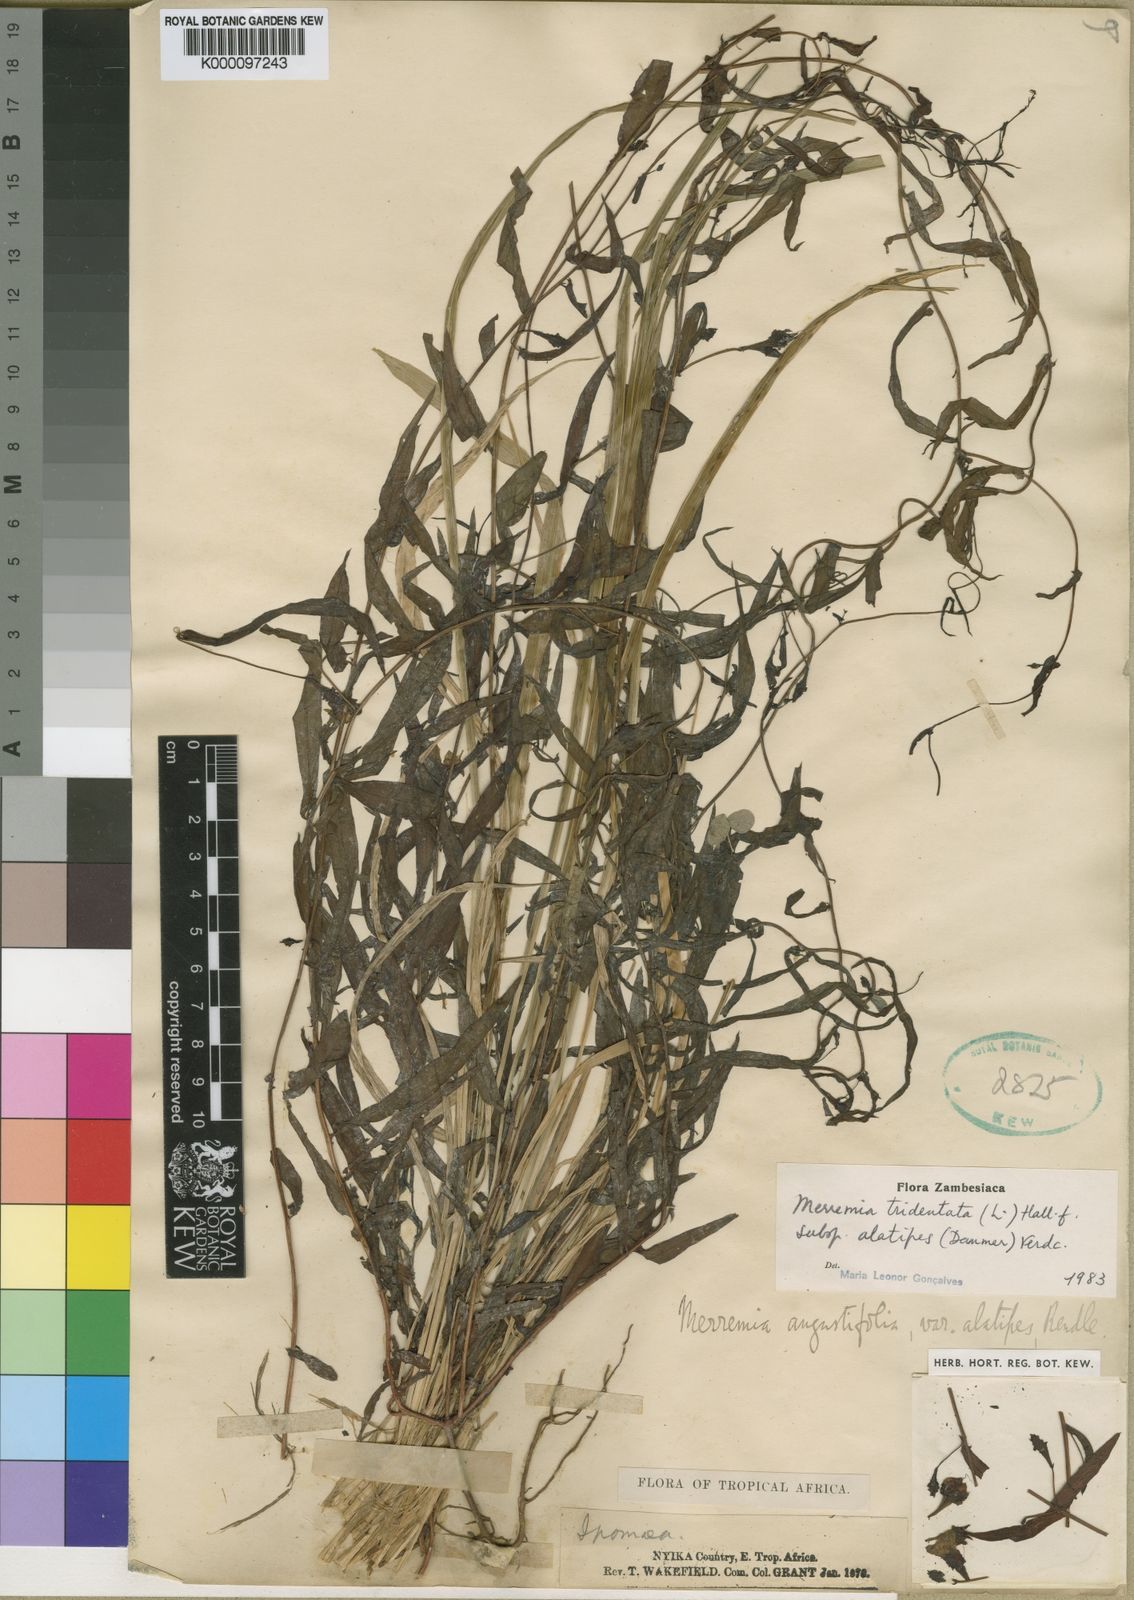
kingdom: Plantae
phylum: Tracheophyta
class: Magnoliopsida
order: Solanales
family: Convolvulaceae
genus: Xenostegia
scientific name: Xenostegia alatipes
